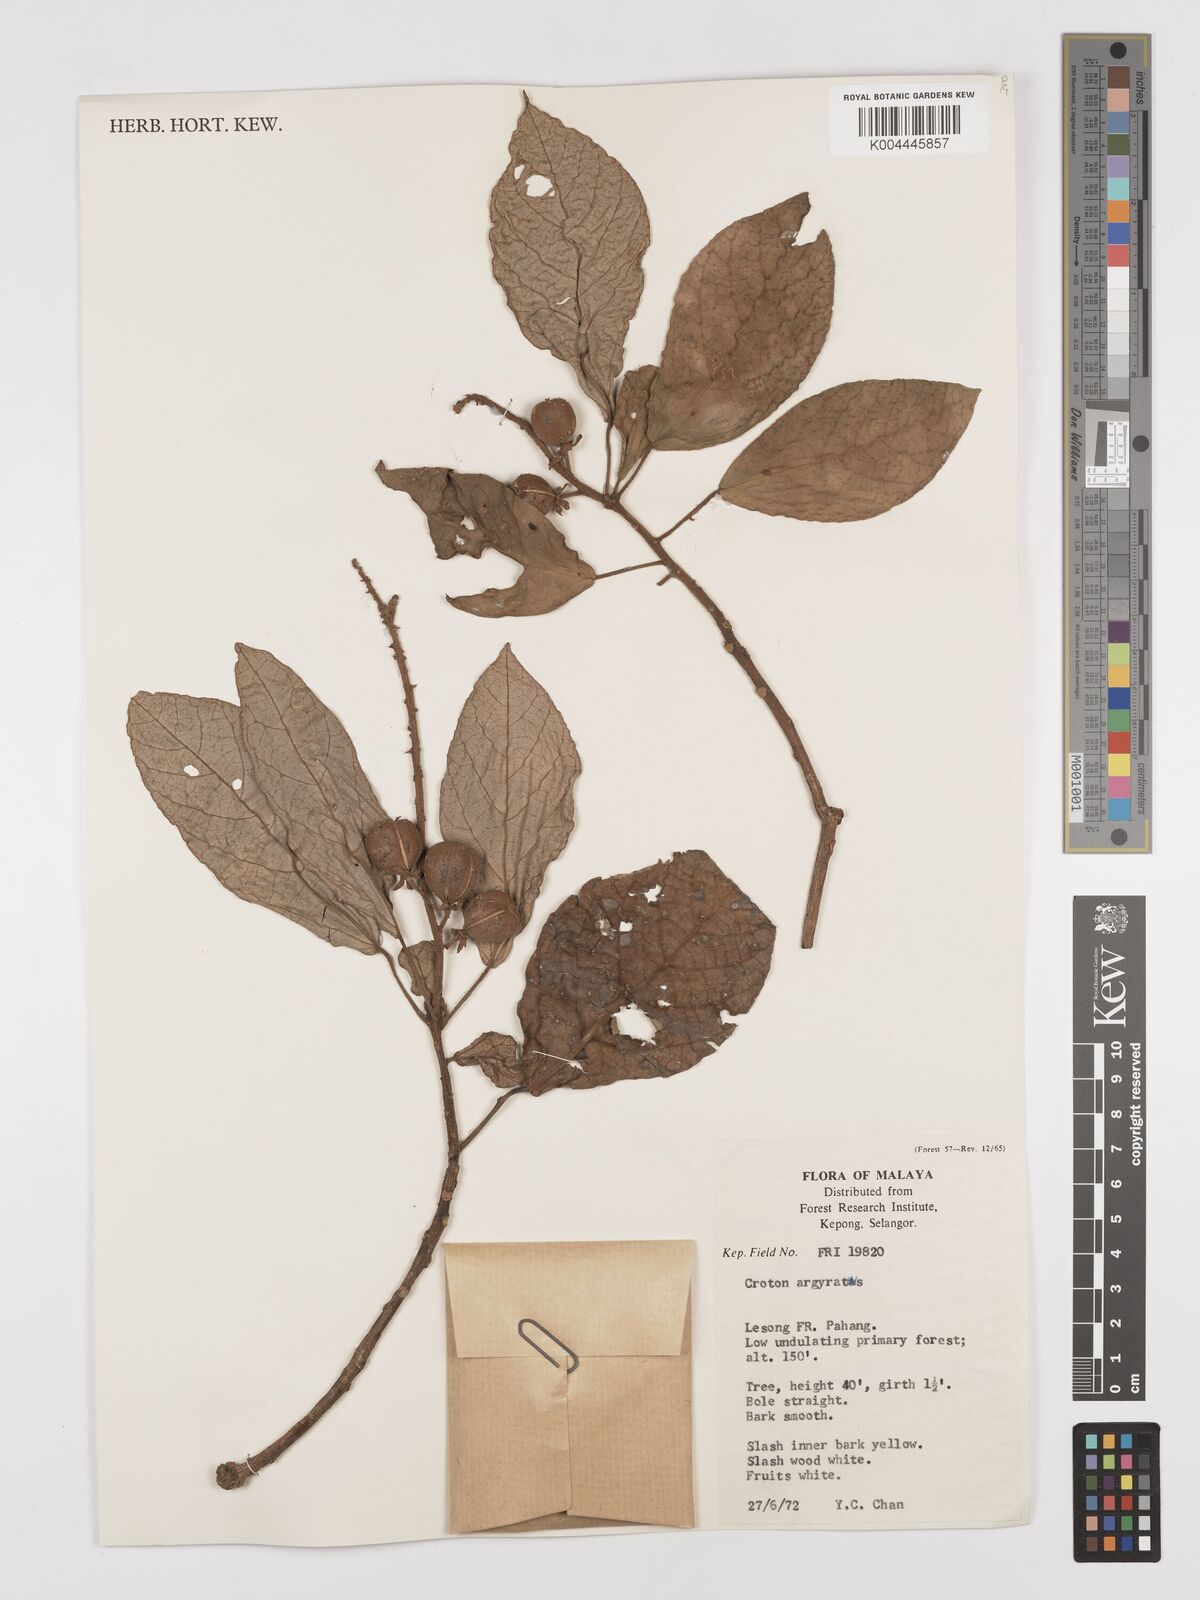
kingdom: Plantae
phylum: Tracheophyta
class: Magnoliopsida
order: Malpighiales
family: Euphorbiaceae
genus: Croton
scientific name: Croton argyratus
